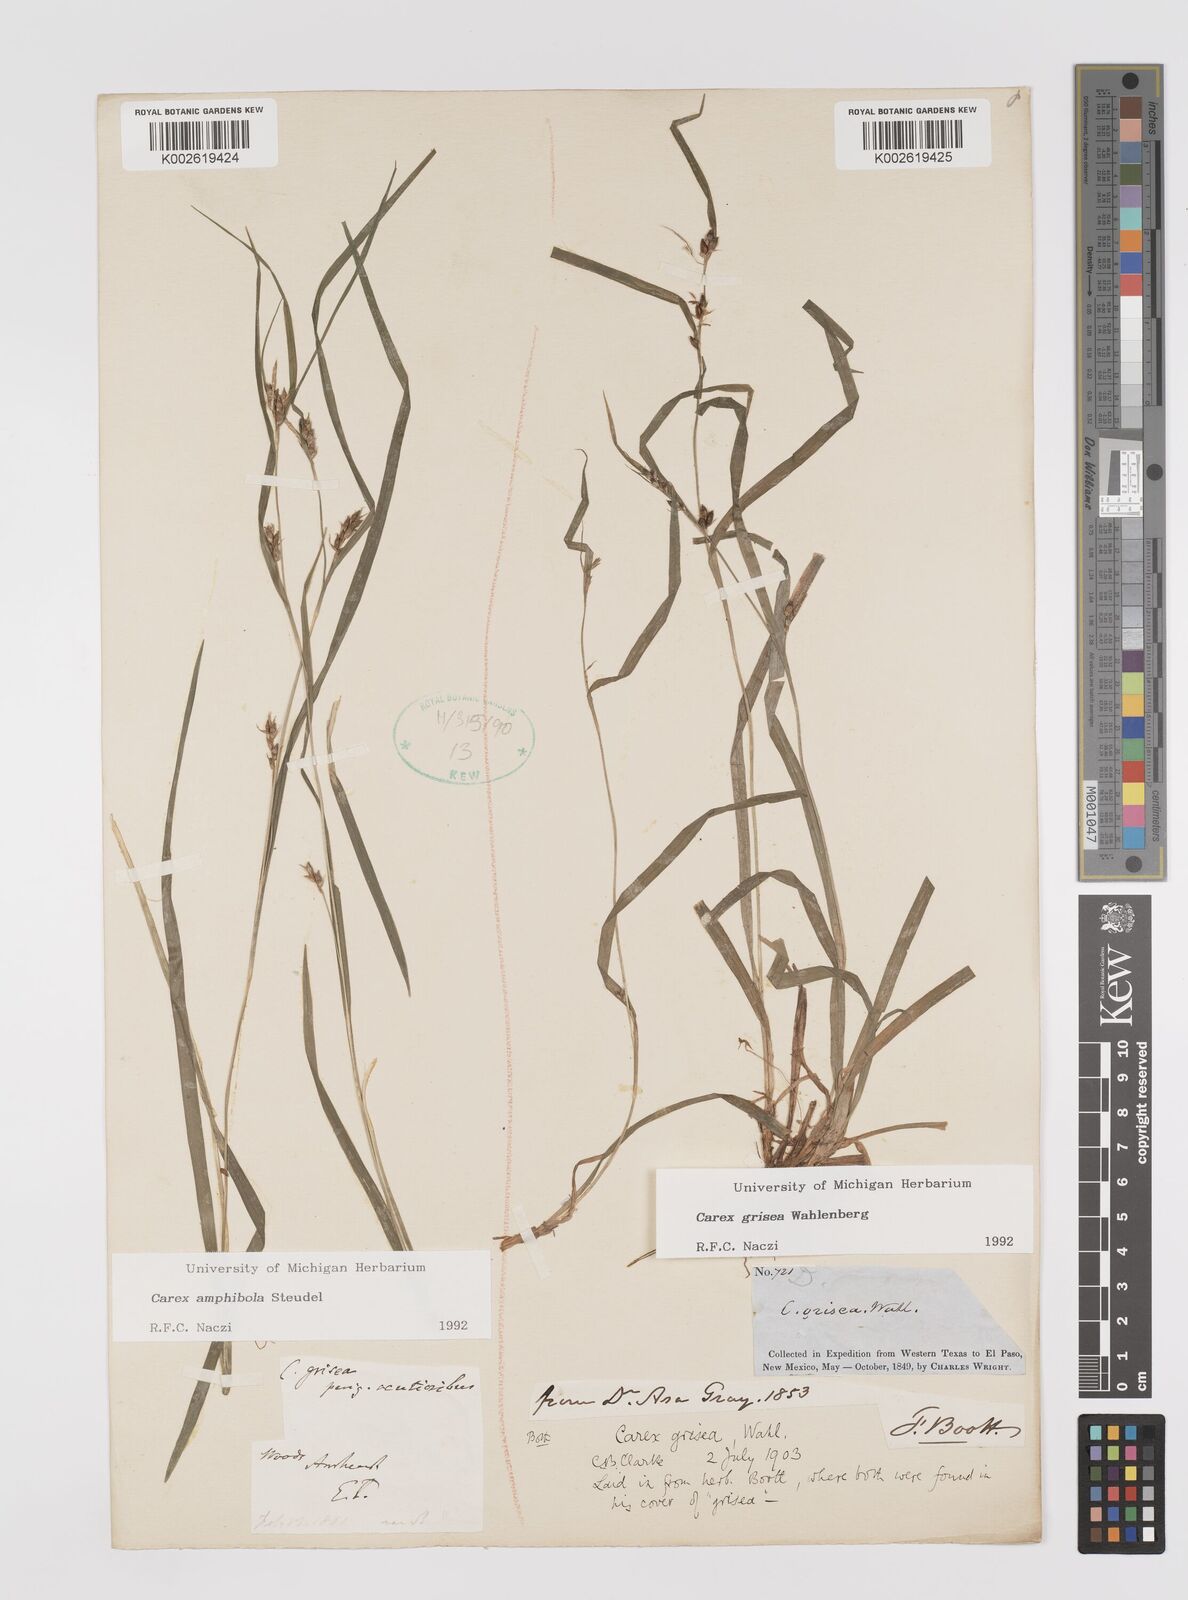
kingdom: Plantae
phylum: Tracheophyta
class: Liliopsida
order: Poales
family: Cyperaceae
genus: Carex
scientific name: Carex grisea
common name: Eastern narrow-leaved sedge
